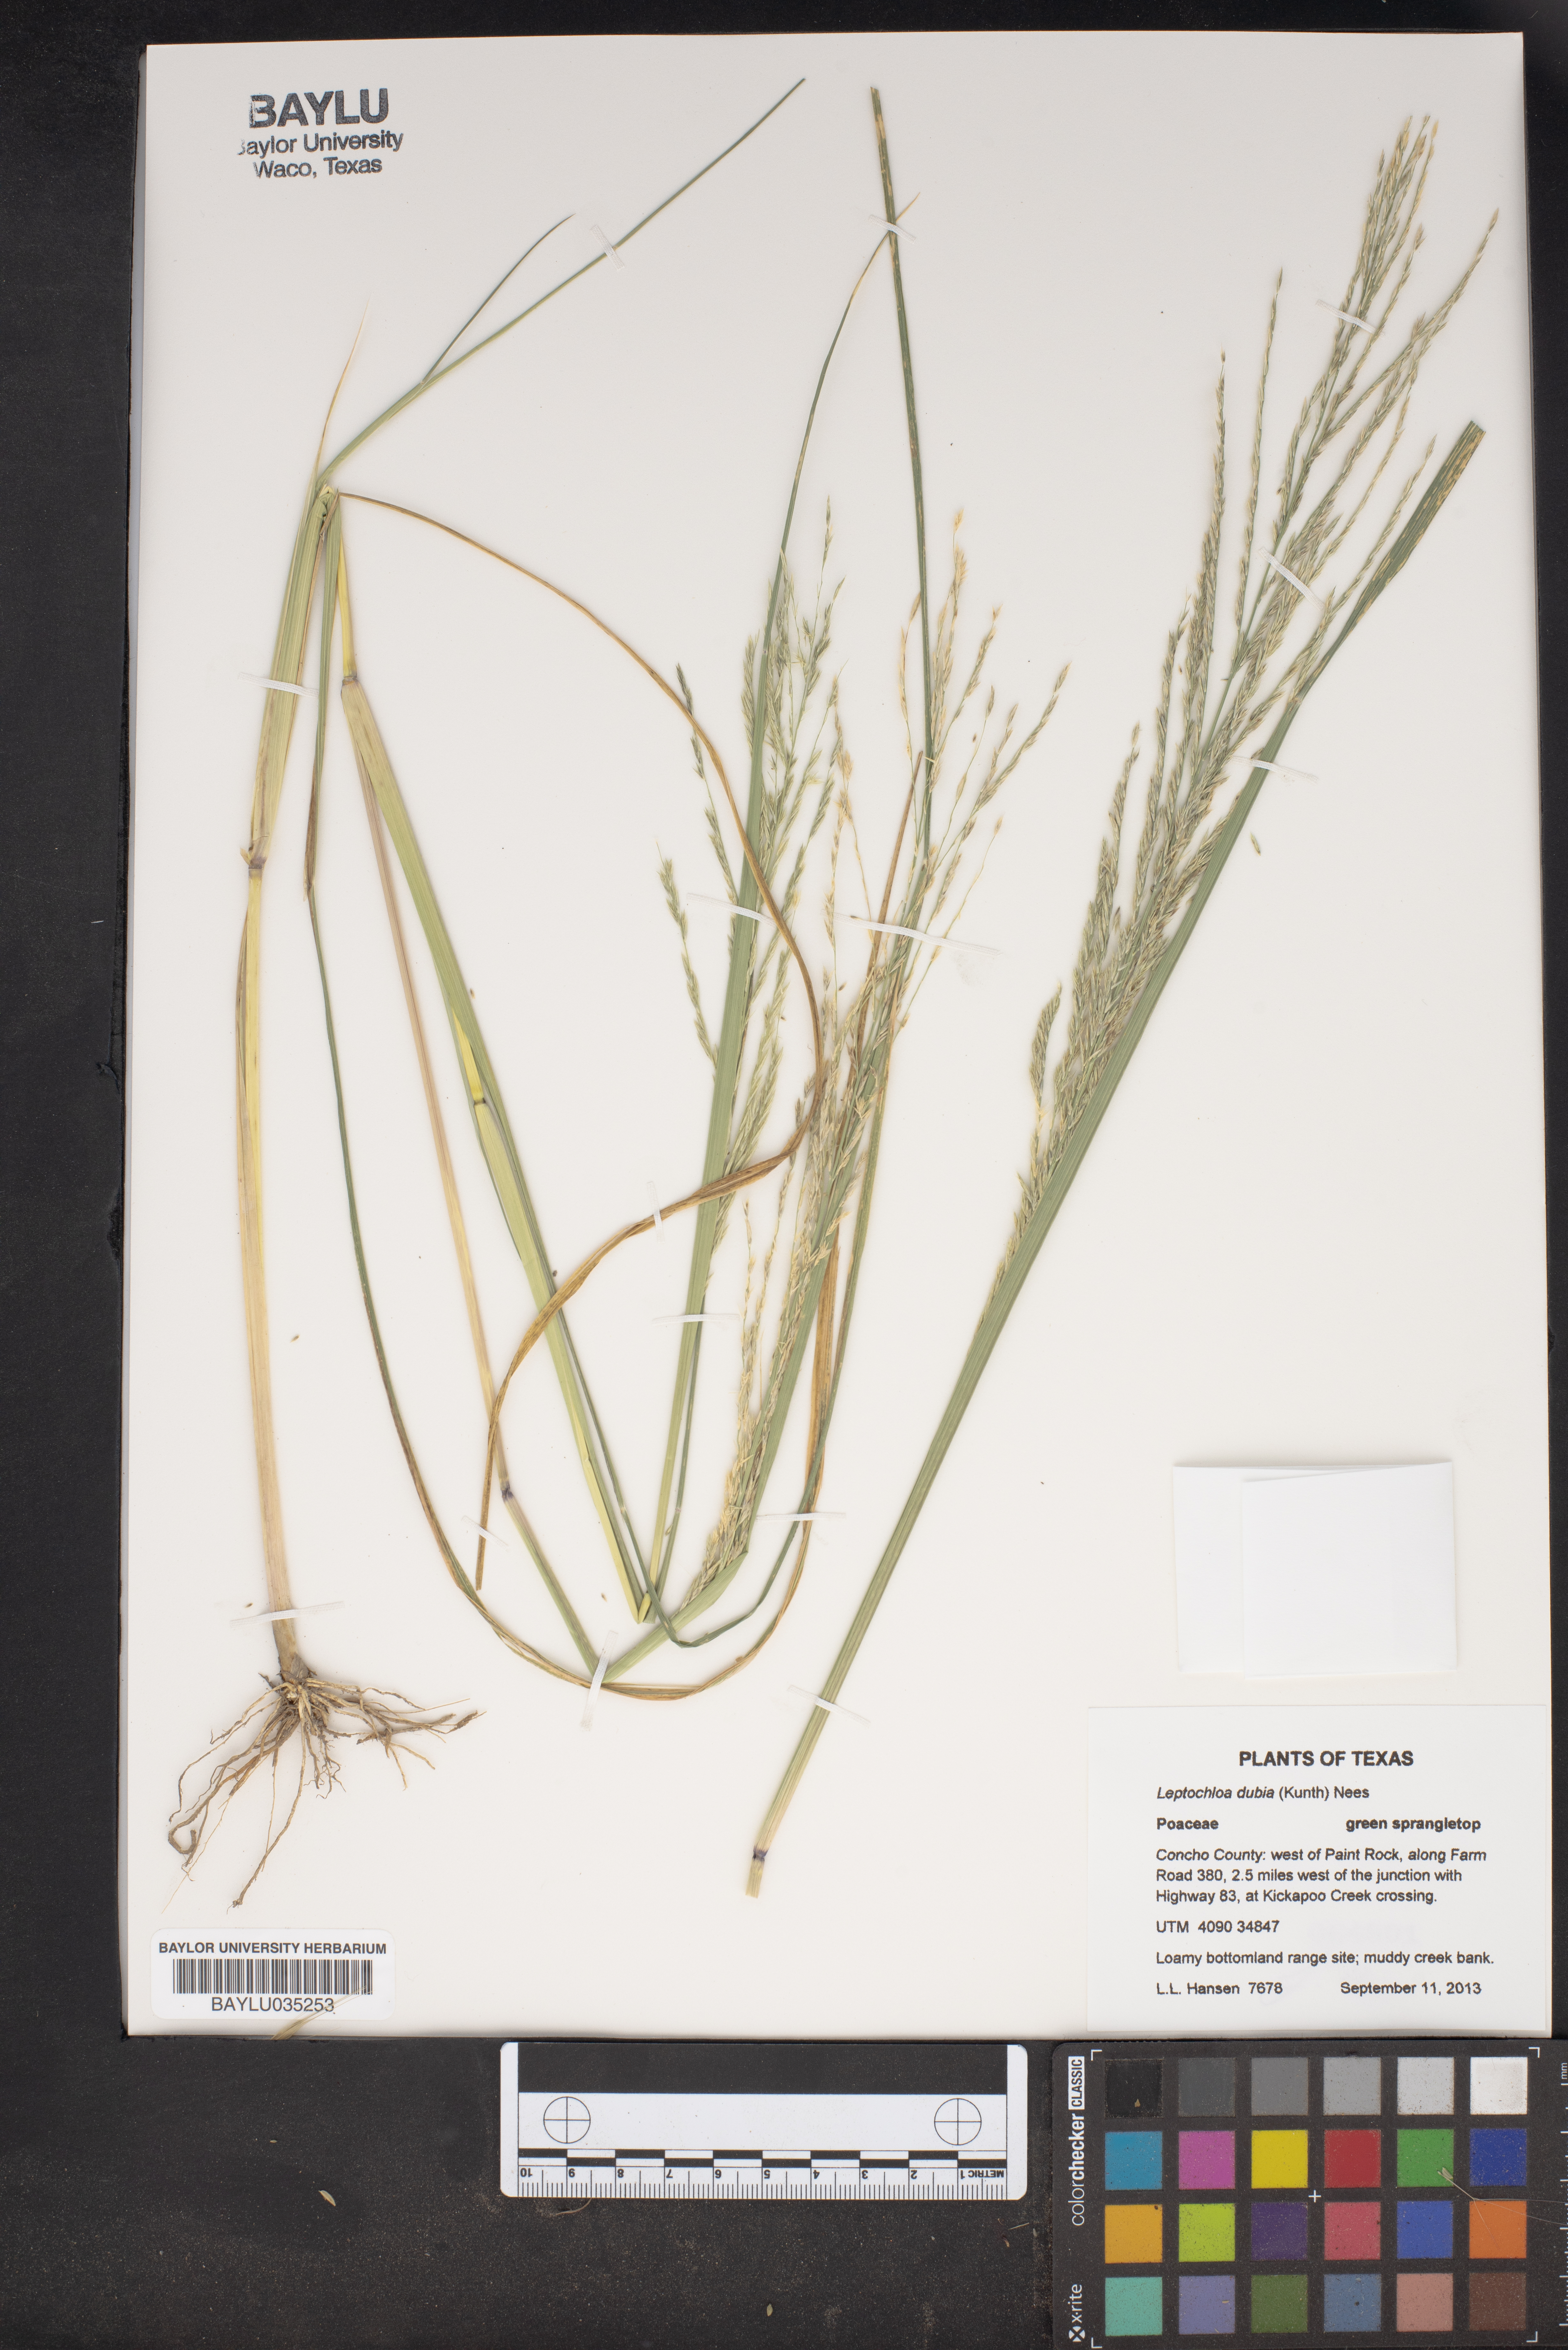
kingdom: Plantae
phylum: Tracheophyta
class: Liliopsida
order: Poales
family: Poaceae
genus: Disakisperma
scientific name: Disakisperma dubium
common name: Green sprangletop
